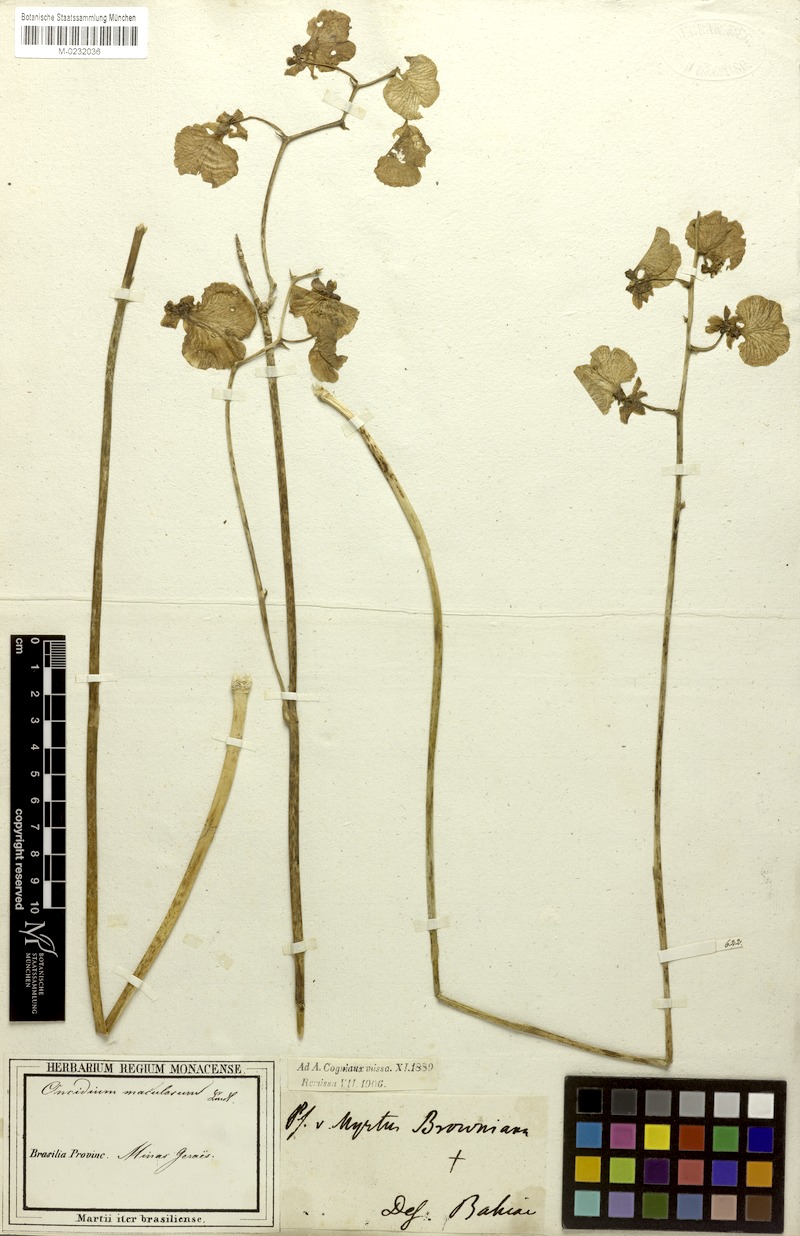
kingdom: Plantae
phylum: Tracheophyta
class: Liliopsida
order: Asparagales
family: Orchidaceae
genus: Gomesa
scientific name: Gomesa bifolia
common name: Dancing ladies
